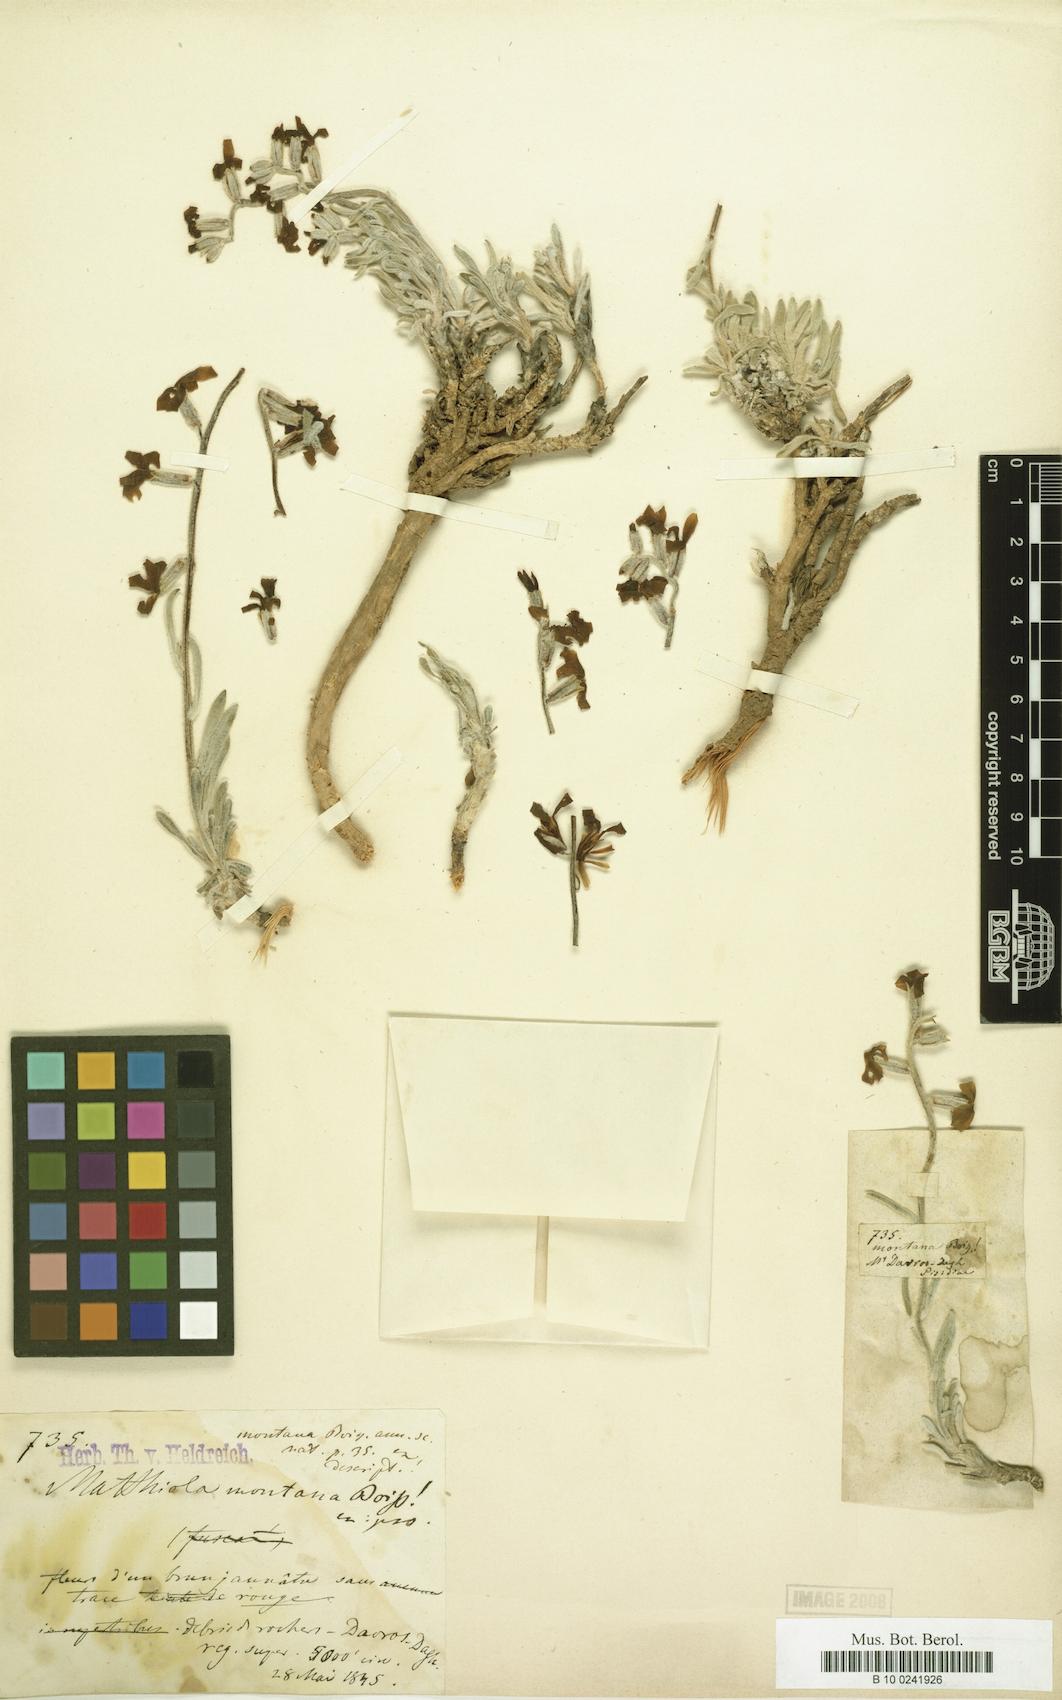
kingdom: Plantae
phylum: Tracheophyta
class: Magnoliopsida
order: Brassicales
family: Brassicaceae
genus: Matthiola
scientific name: Matthiola montana
